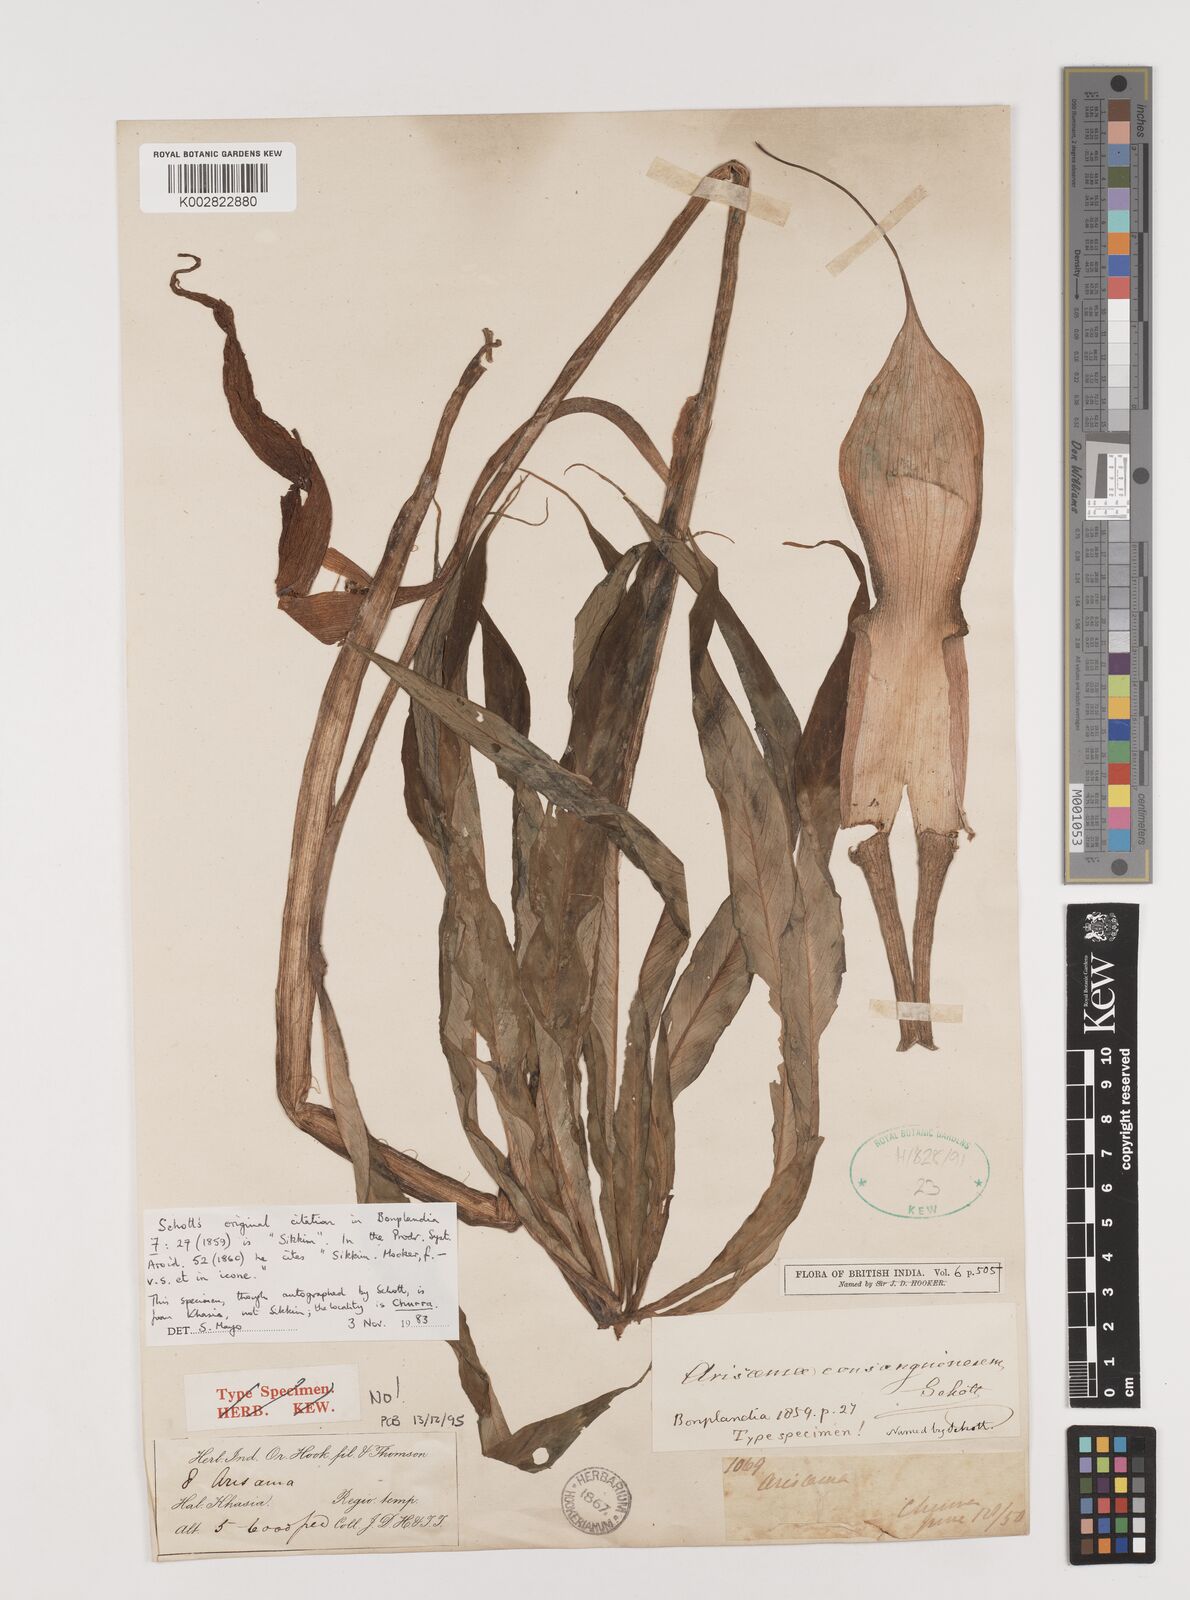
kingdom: Plantae
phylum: Tracheophyta
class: Liliopsida
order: Alismatales
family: Araceae
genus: Arisaema
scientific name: Arisaema erubescens
